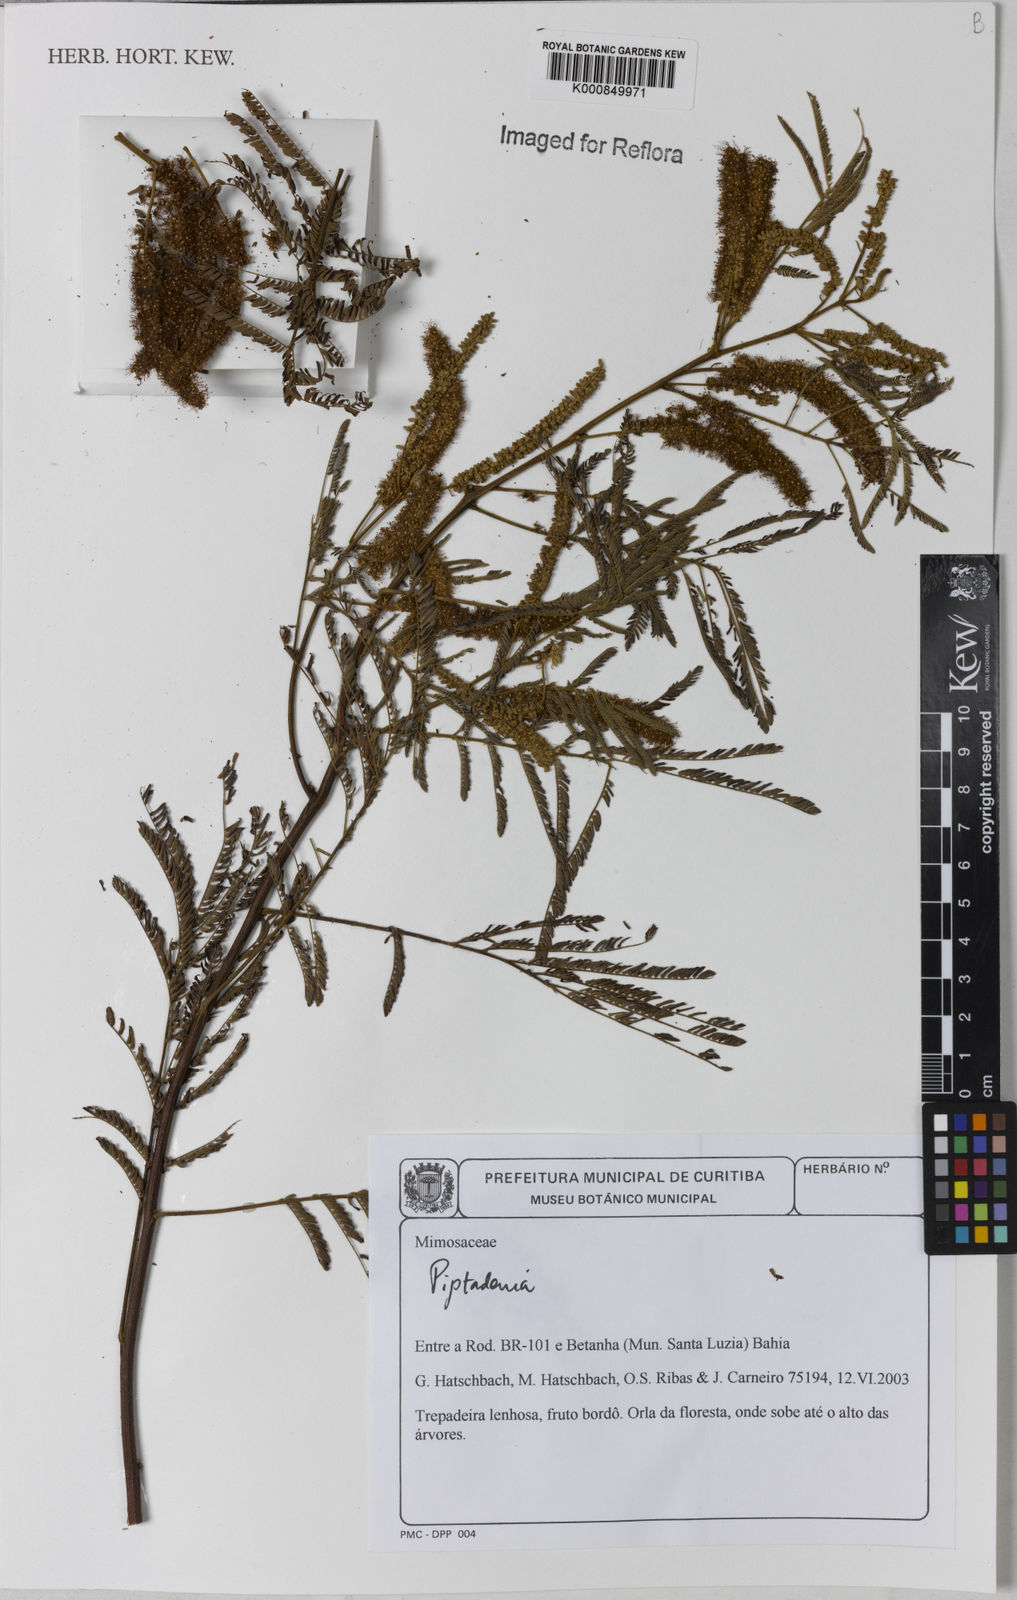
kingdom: Plantae
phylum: Tracheophyta
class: Magnoliopsida
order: Fabales
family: Fabaceae
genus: Piptadenia
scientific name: Piptadenia micracantha
